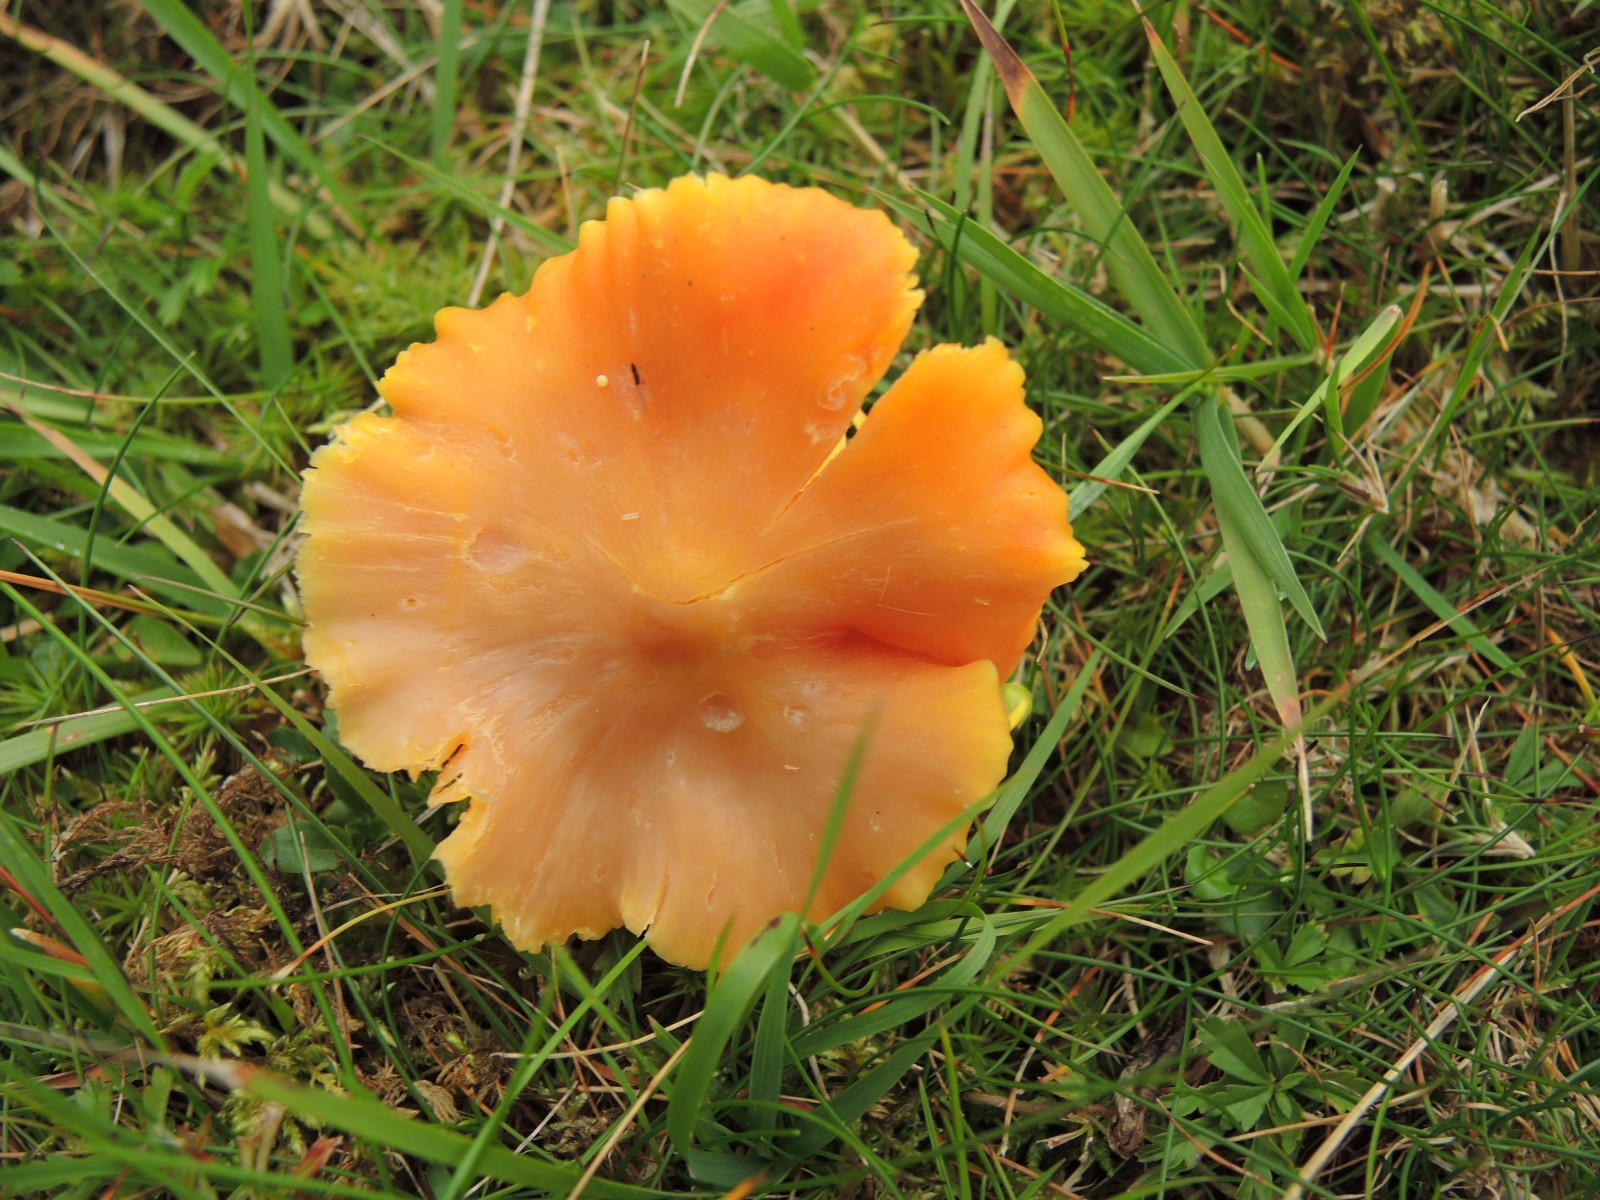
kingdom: Fungi
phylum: Basidiomycota
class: Agaricomycetes
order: Agaricales
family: Hygrophoraceae
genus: Hygrocybe
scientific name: Hygrocybe quieta
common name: tæge-vokshat
